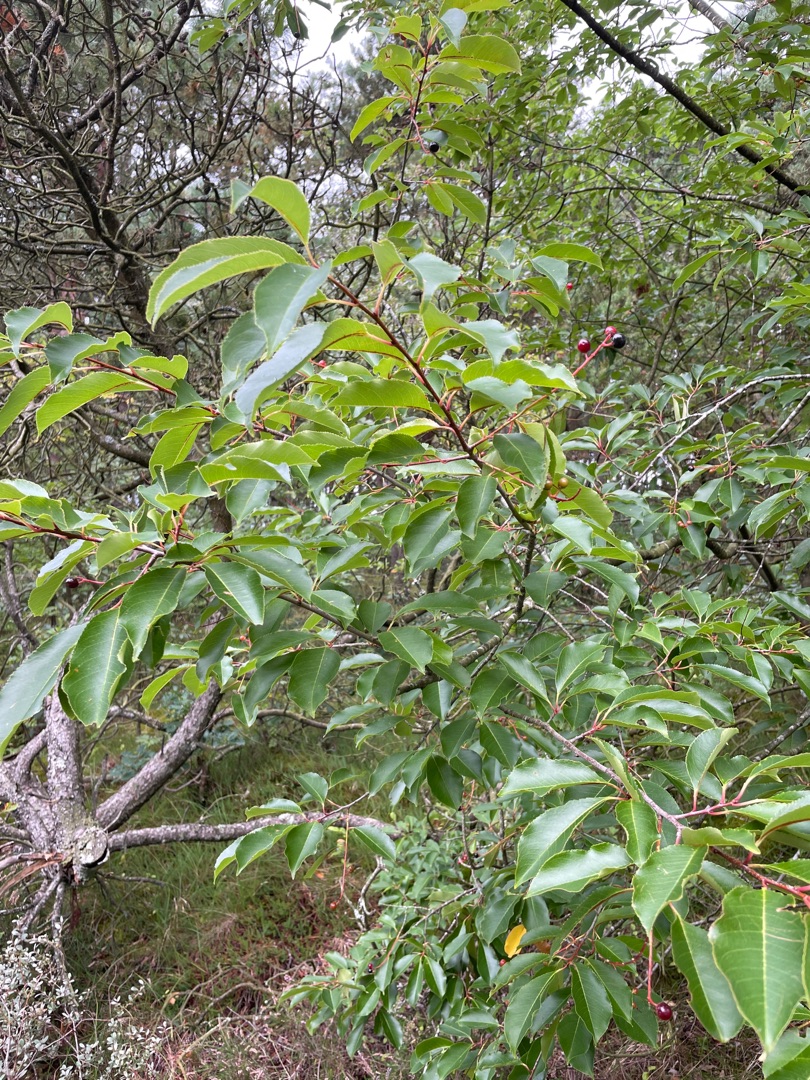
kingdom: Plantae
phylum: Tracheophyta
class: Magnoliopsida
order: Rosales
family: Rosaceae
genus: Prunus
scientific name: Prunus serotina
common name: Glansbladet hæg
